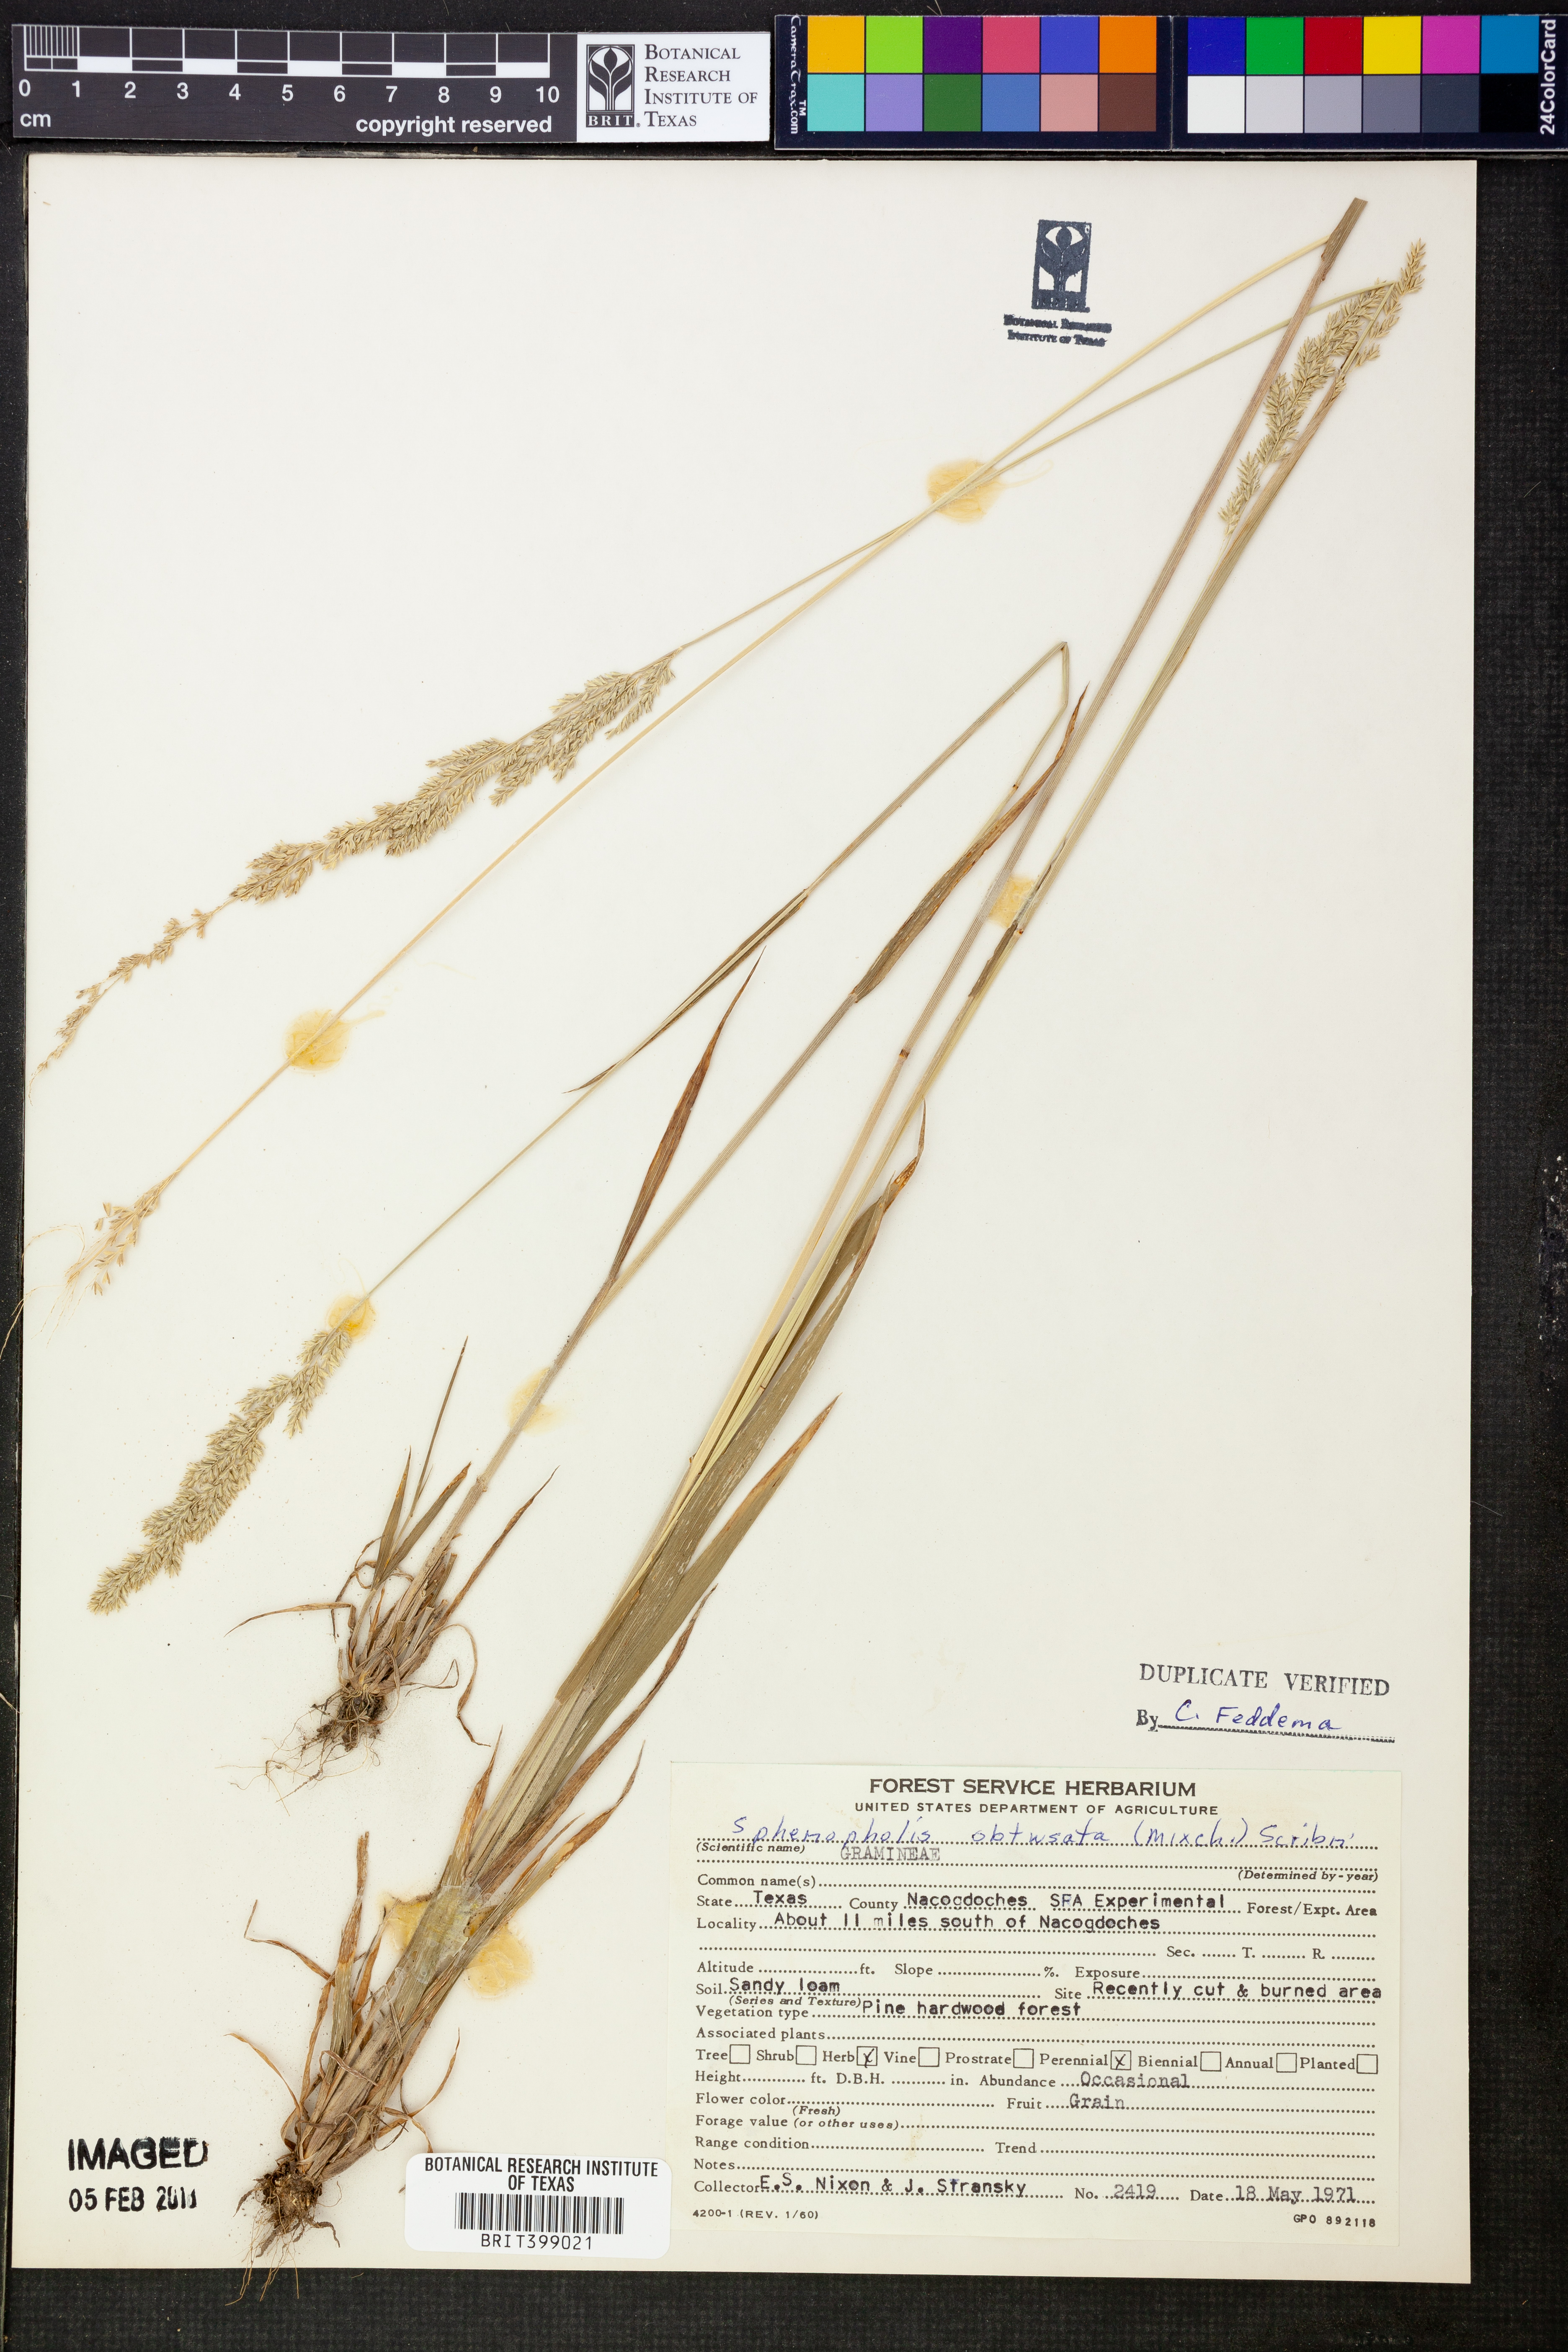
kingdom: Plantae
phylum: Tracheophyta
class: Liliopsida
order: Poales
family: Poaceae
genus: Sphenopholis
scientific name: Sphenopholis obtusata
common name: Prairie grass
